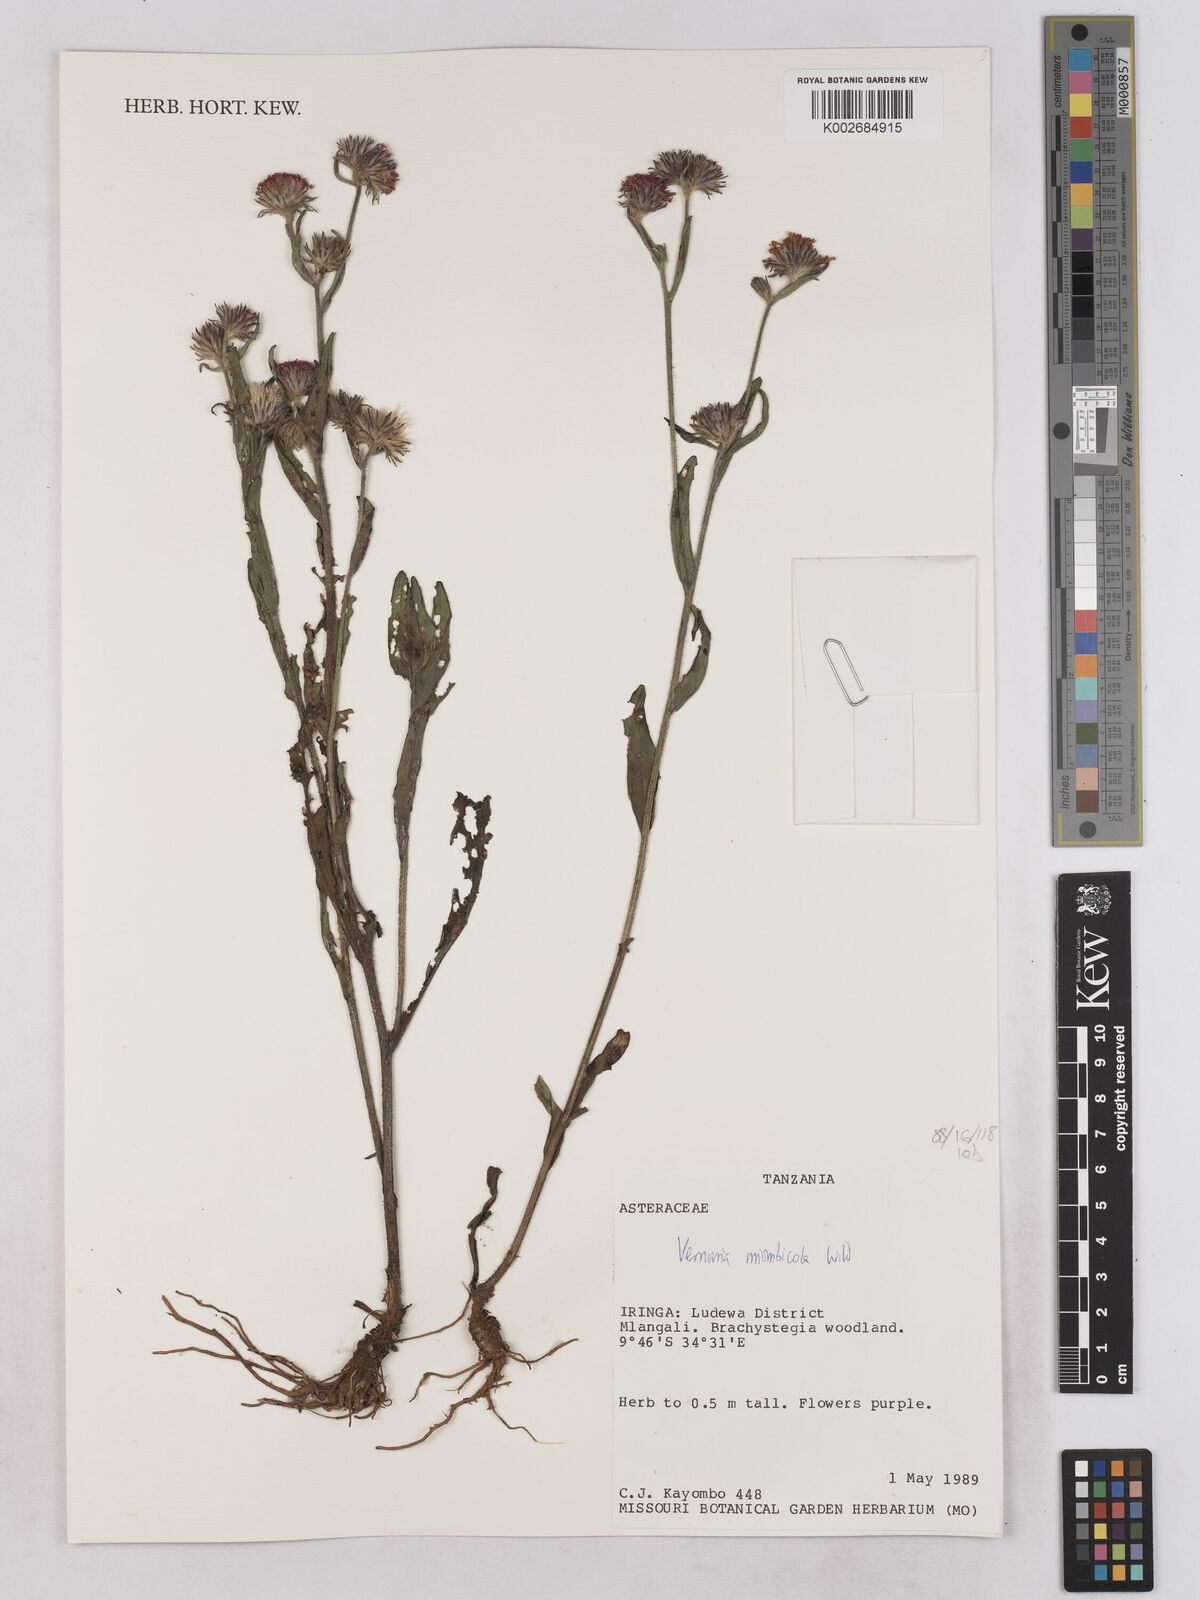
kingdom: Plantae
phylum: Tracheophyta
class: Magnoliopsida
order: Asterales
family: Asteraceae
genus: Vernonia
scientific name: Vernonia miombicola
